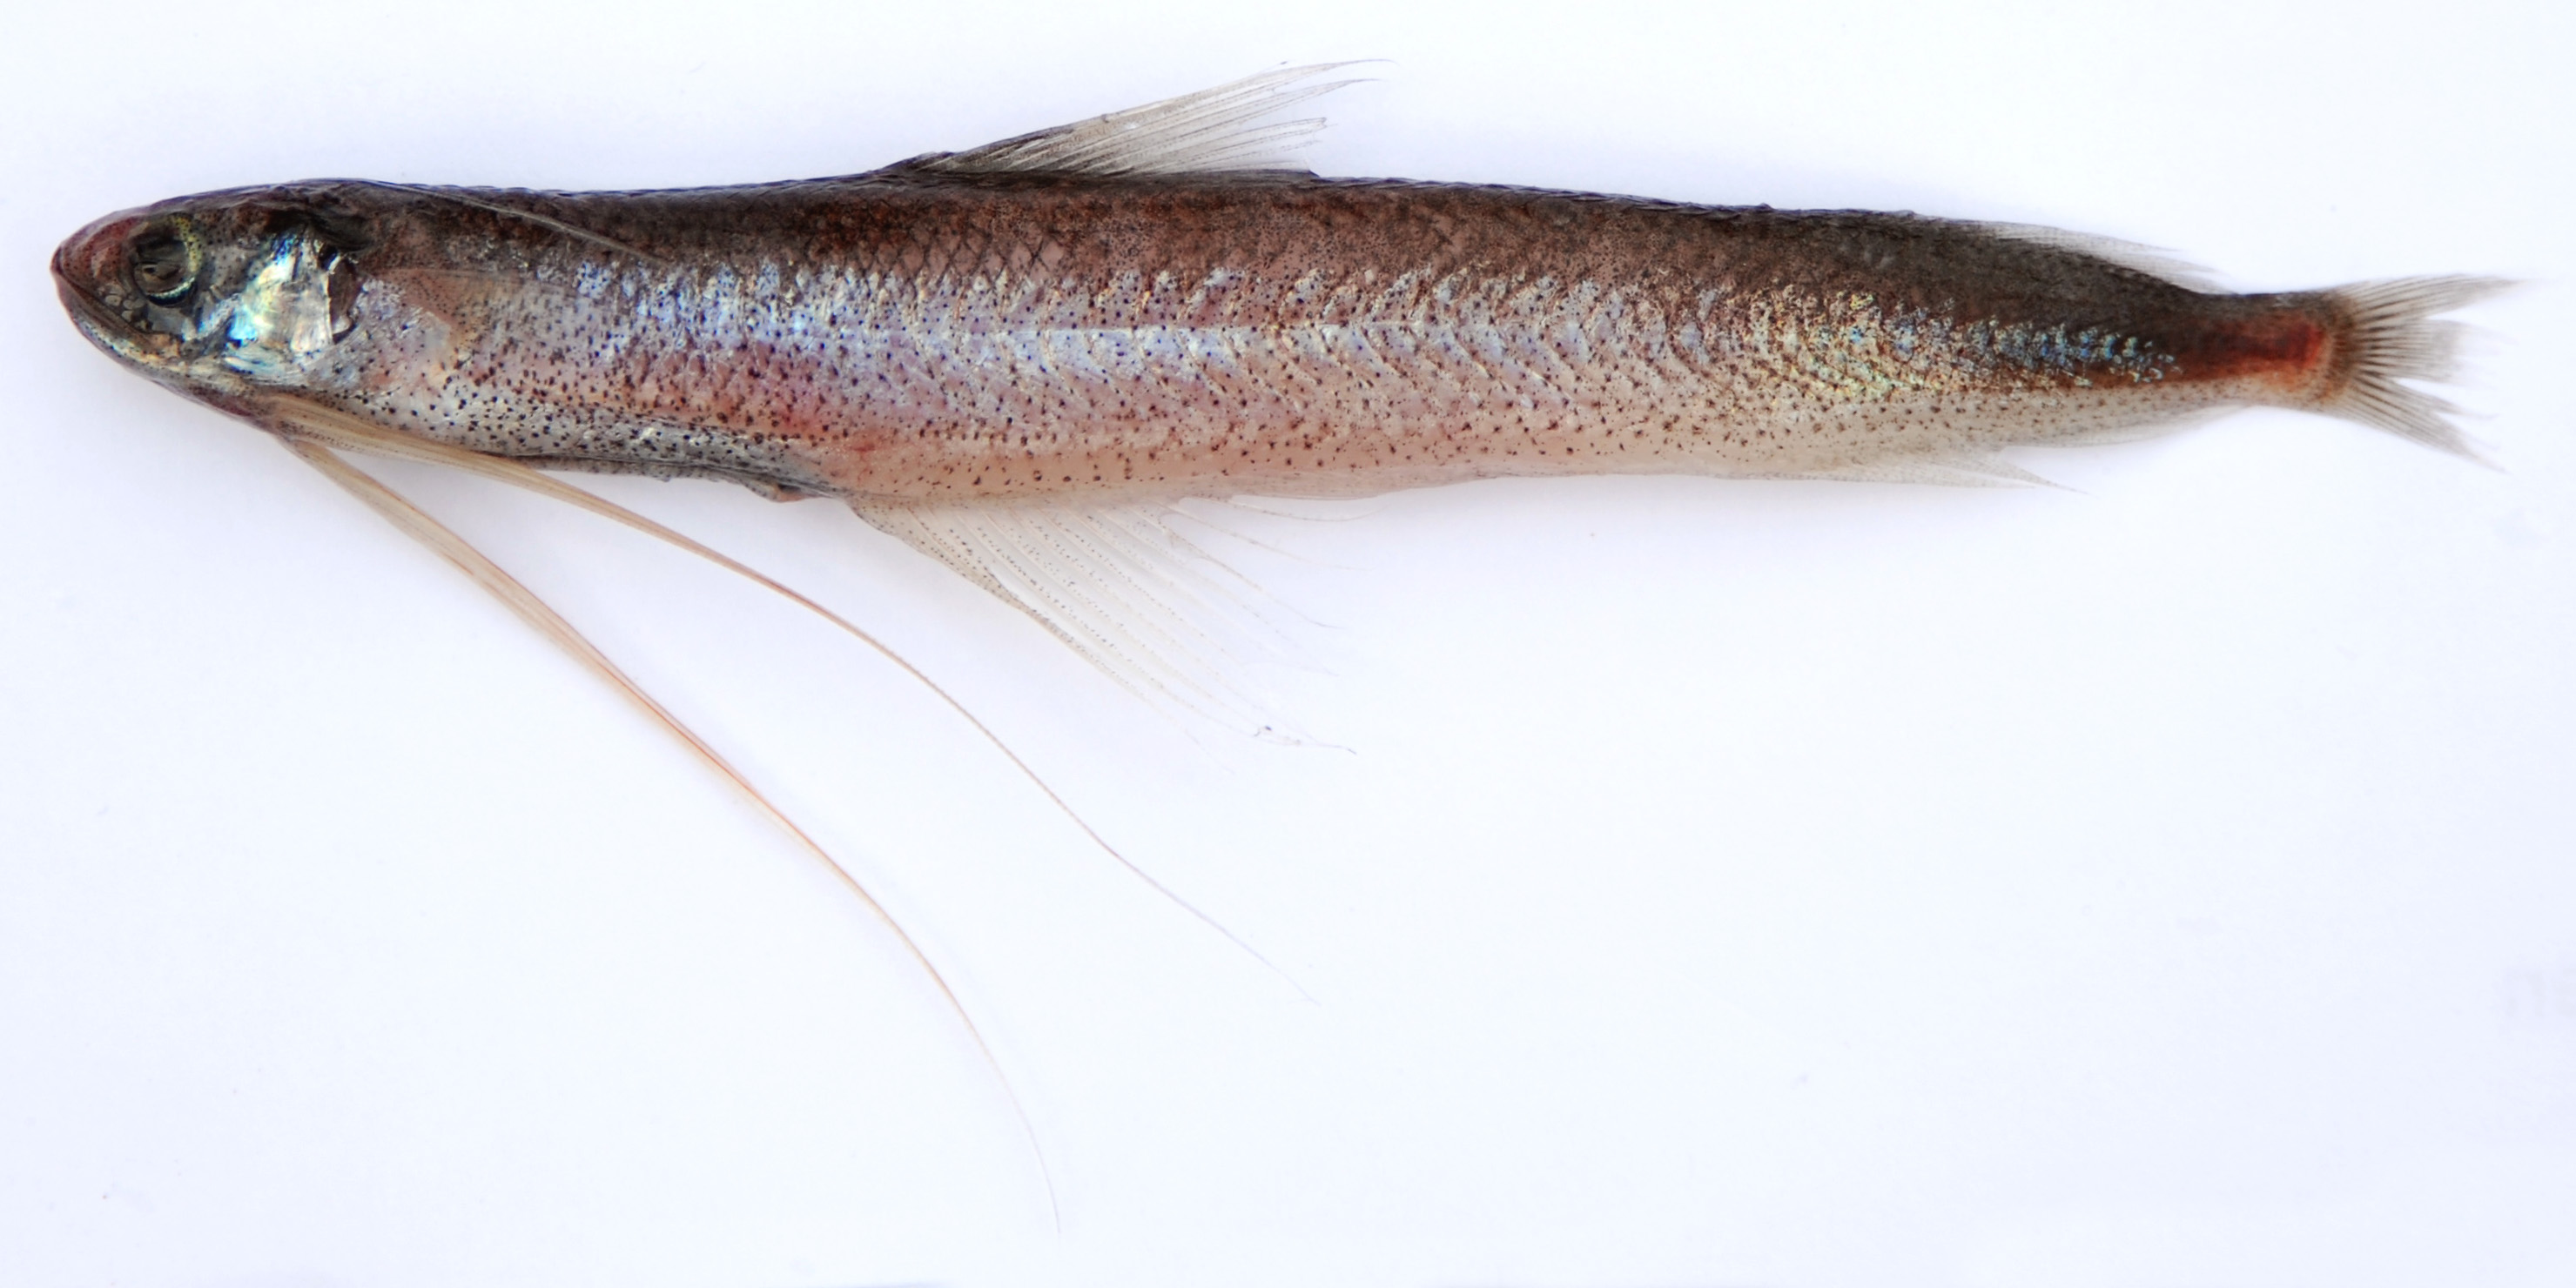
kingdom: Animalia
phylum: Chordata
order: Gadiformes
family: Bregmacerotidae
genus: Bregmaceros
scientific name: Bregmaceros atlanticus
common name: Antenna codlet
